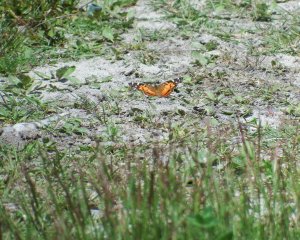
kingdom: Animalia
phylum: Arthropoda
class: Insecta
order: Lepidoptera
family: Nymphalidae
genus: Vanessa
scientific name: Vanessa virginiensis
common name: American Lady
